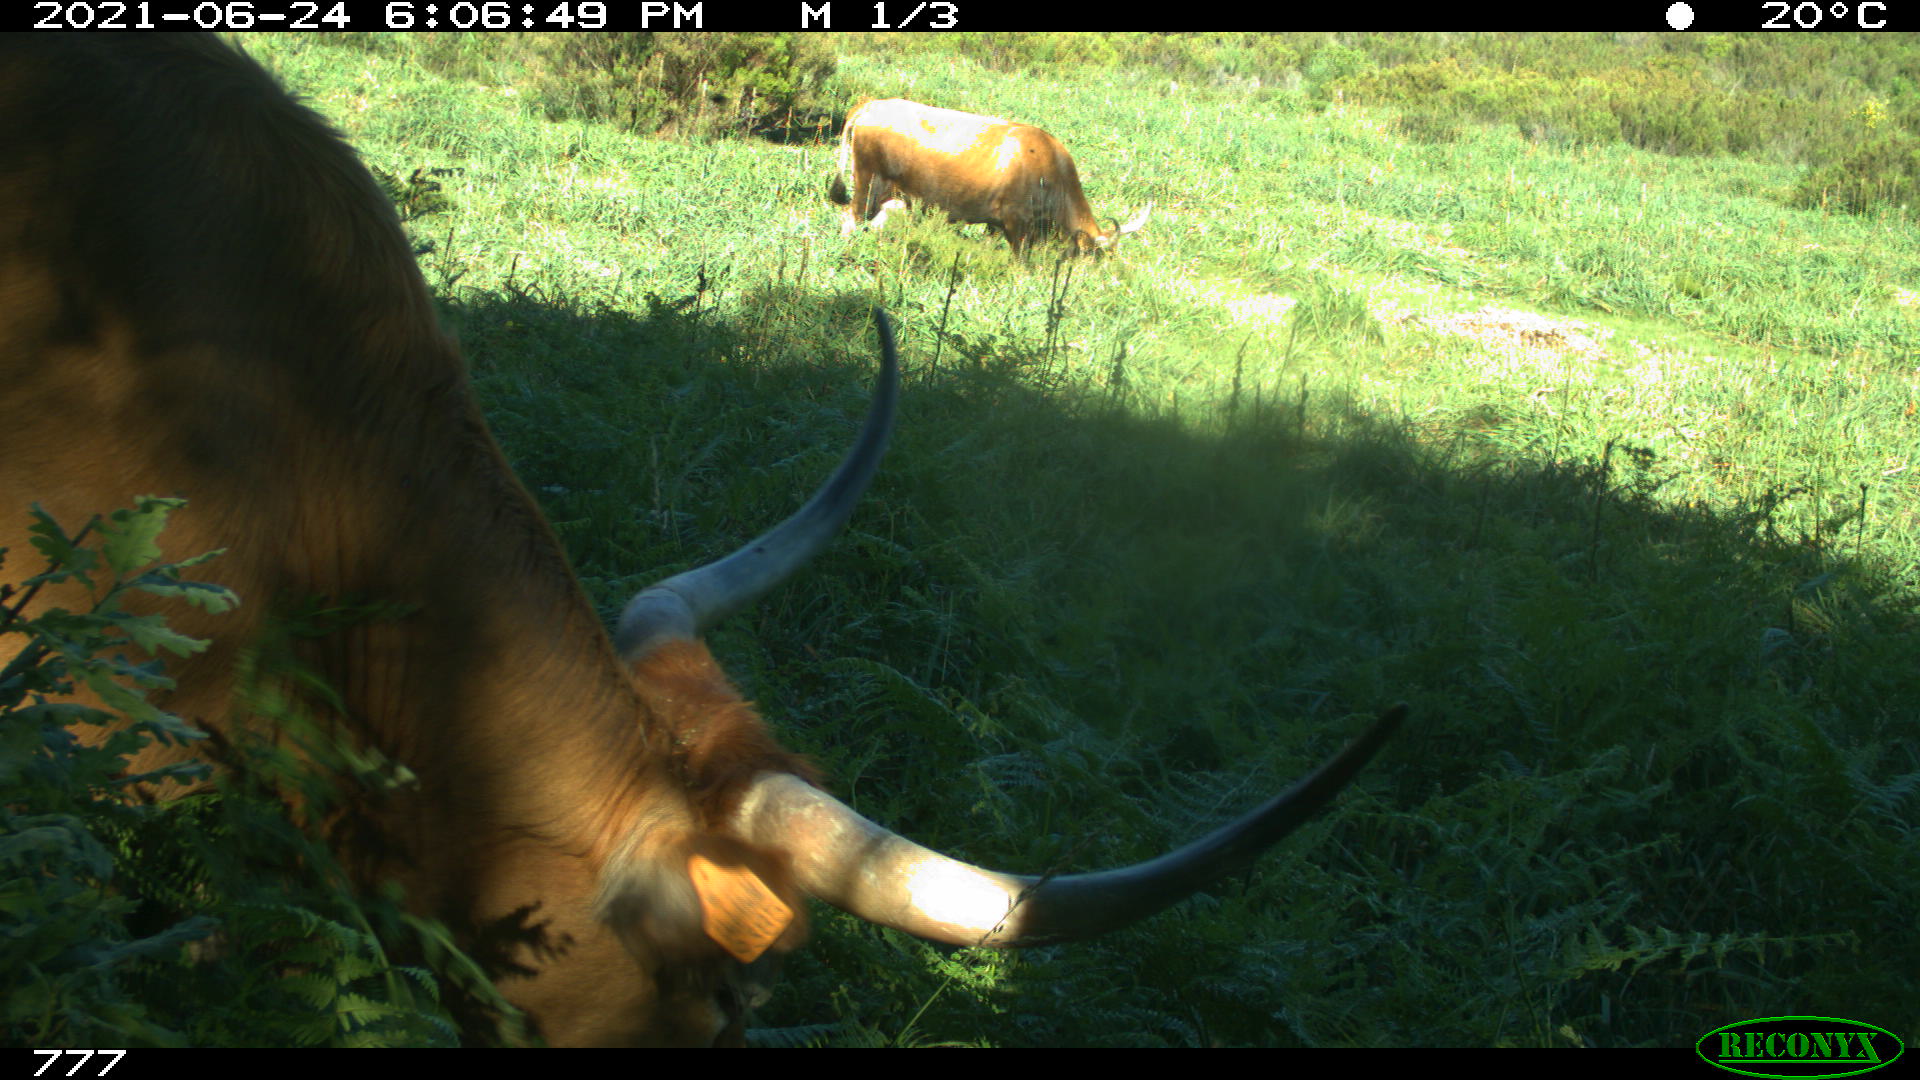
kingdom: Animalia
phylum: Chordata
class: Mammalia
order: Artiodactyla
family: Bovidae
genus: Bos
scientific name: Bos taurus
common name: Domesticated cattle
